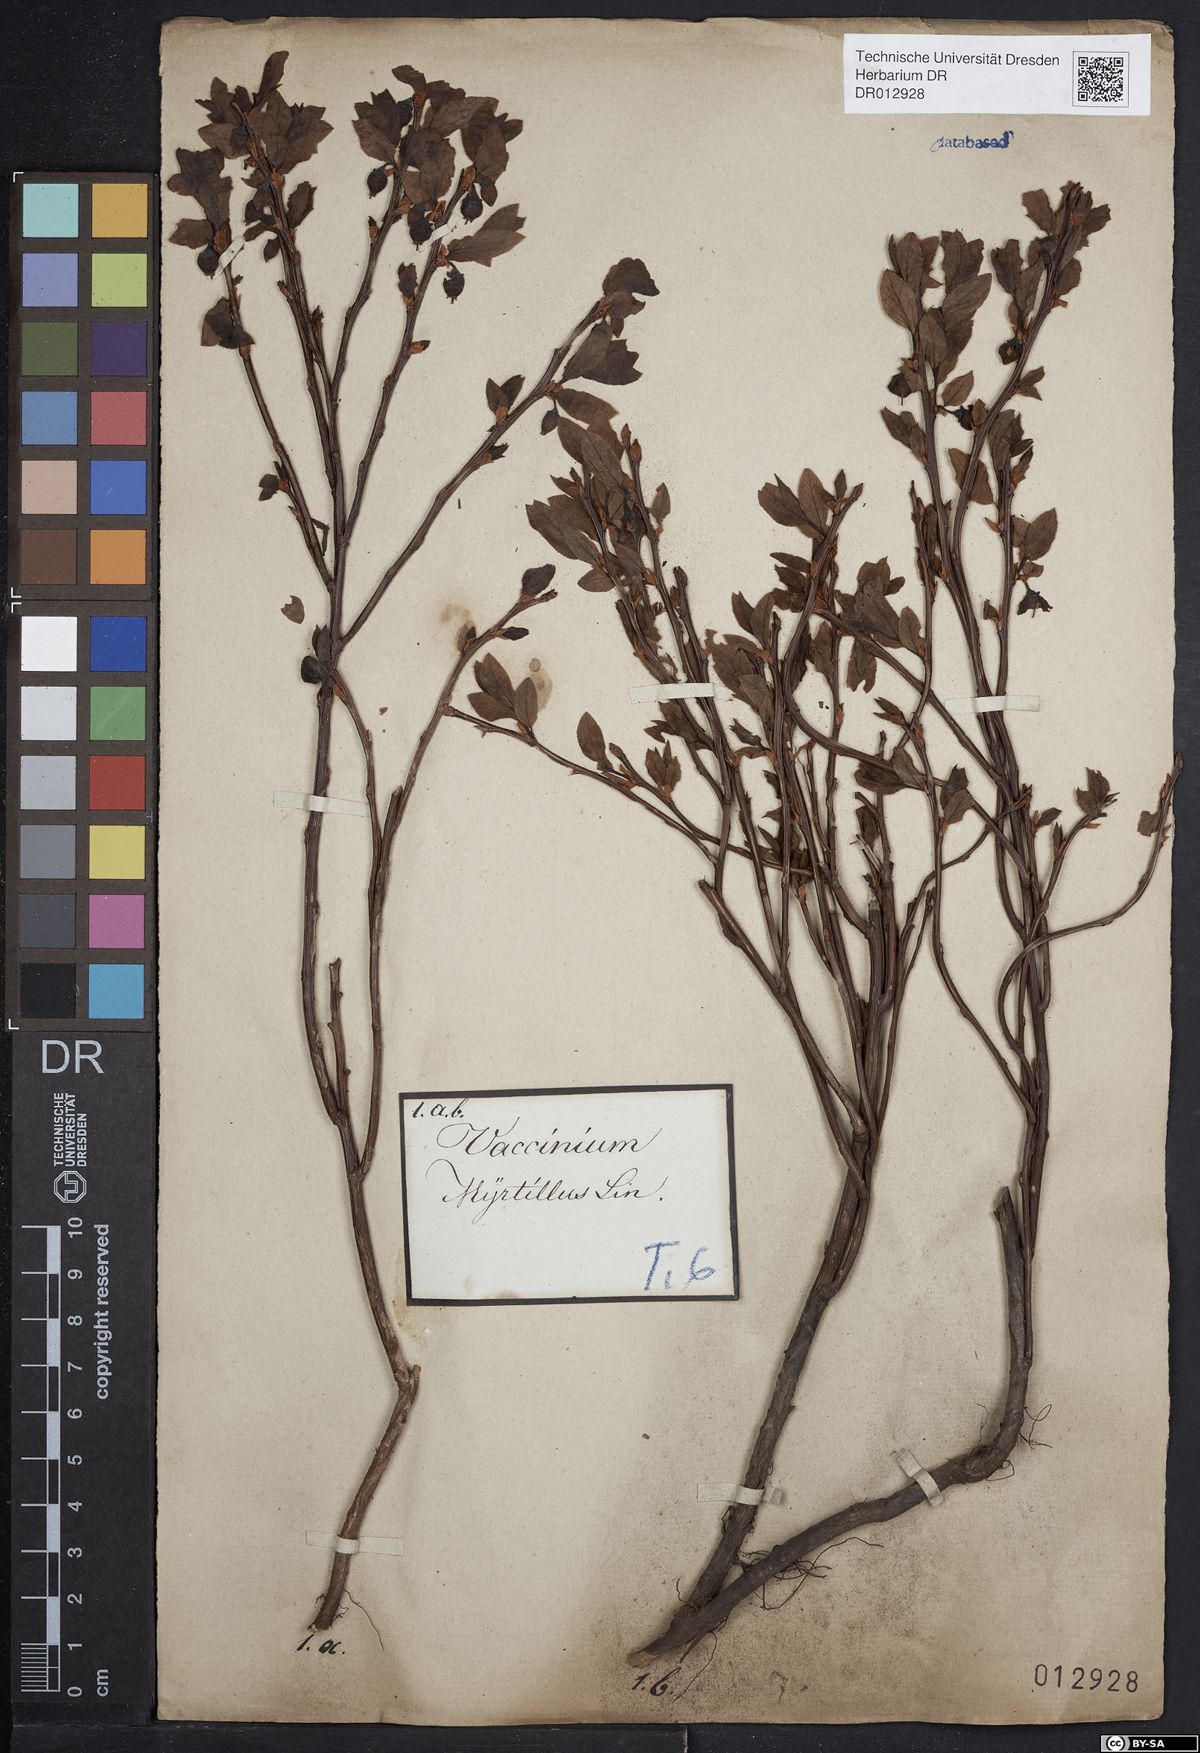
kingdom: Plantae
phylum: Tracheophyta
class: Magnoliopsida
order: Ericales
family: Ericaceae
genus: Vaccinium
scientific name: Vaccinium myrtillus
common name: Bilberry
